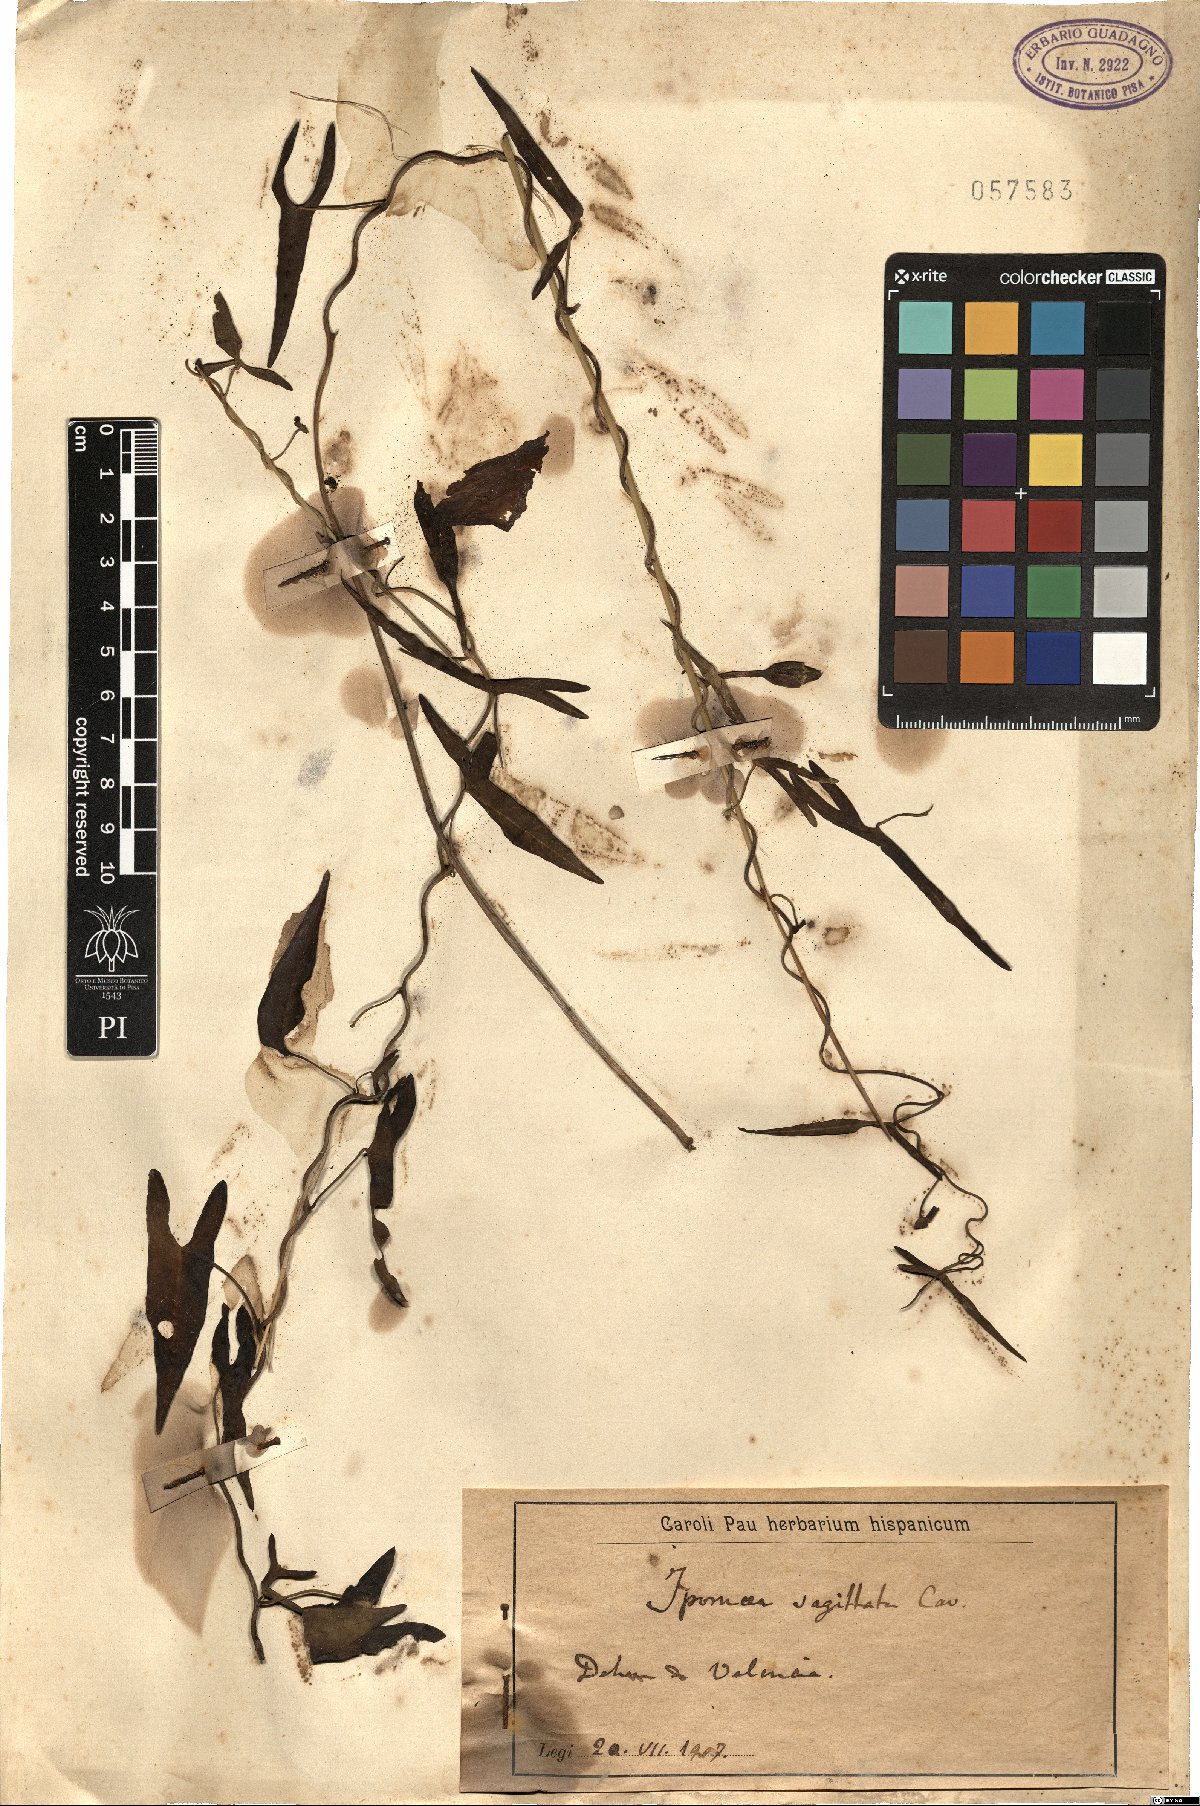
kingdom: Plantae
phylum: Tracheophyta
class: Magnoliopsida
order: Solanales
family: Convolvulaceae
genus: Ipomoea
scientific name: Ipomoea sagittata
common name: Saltmarsh morning glory
